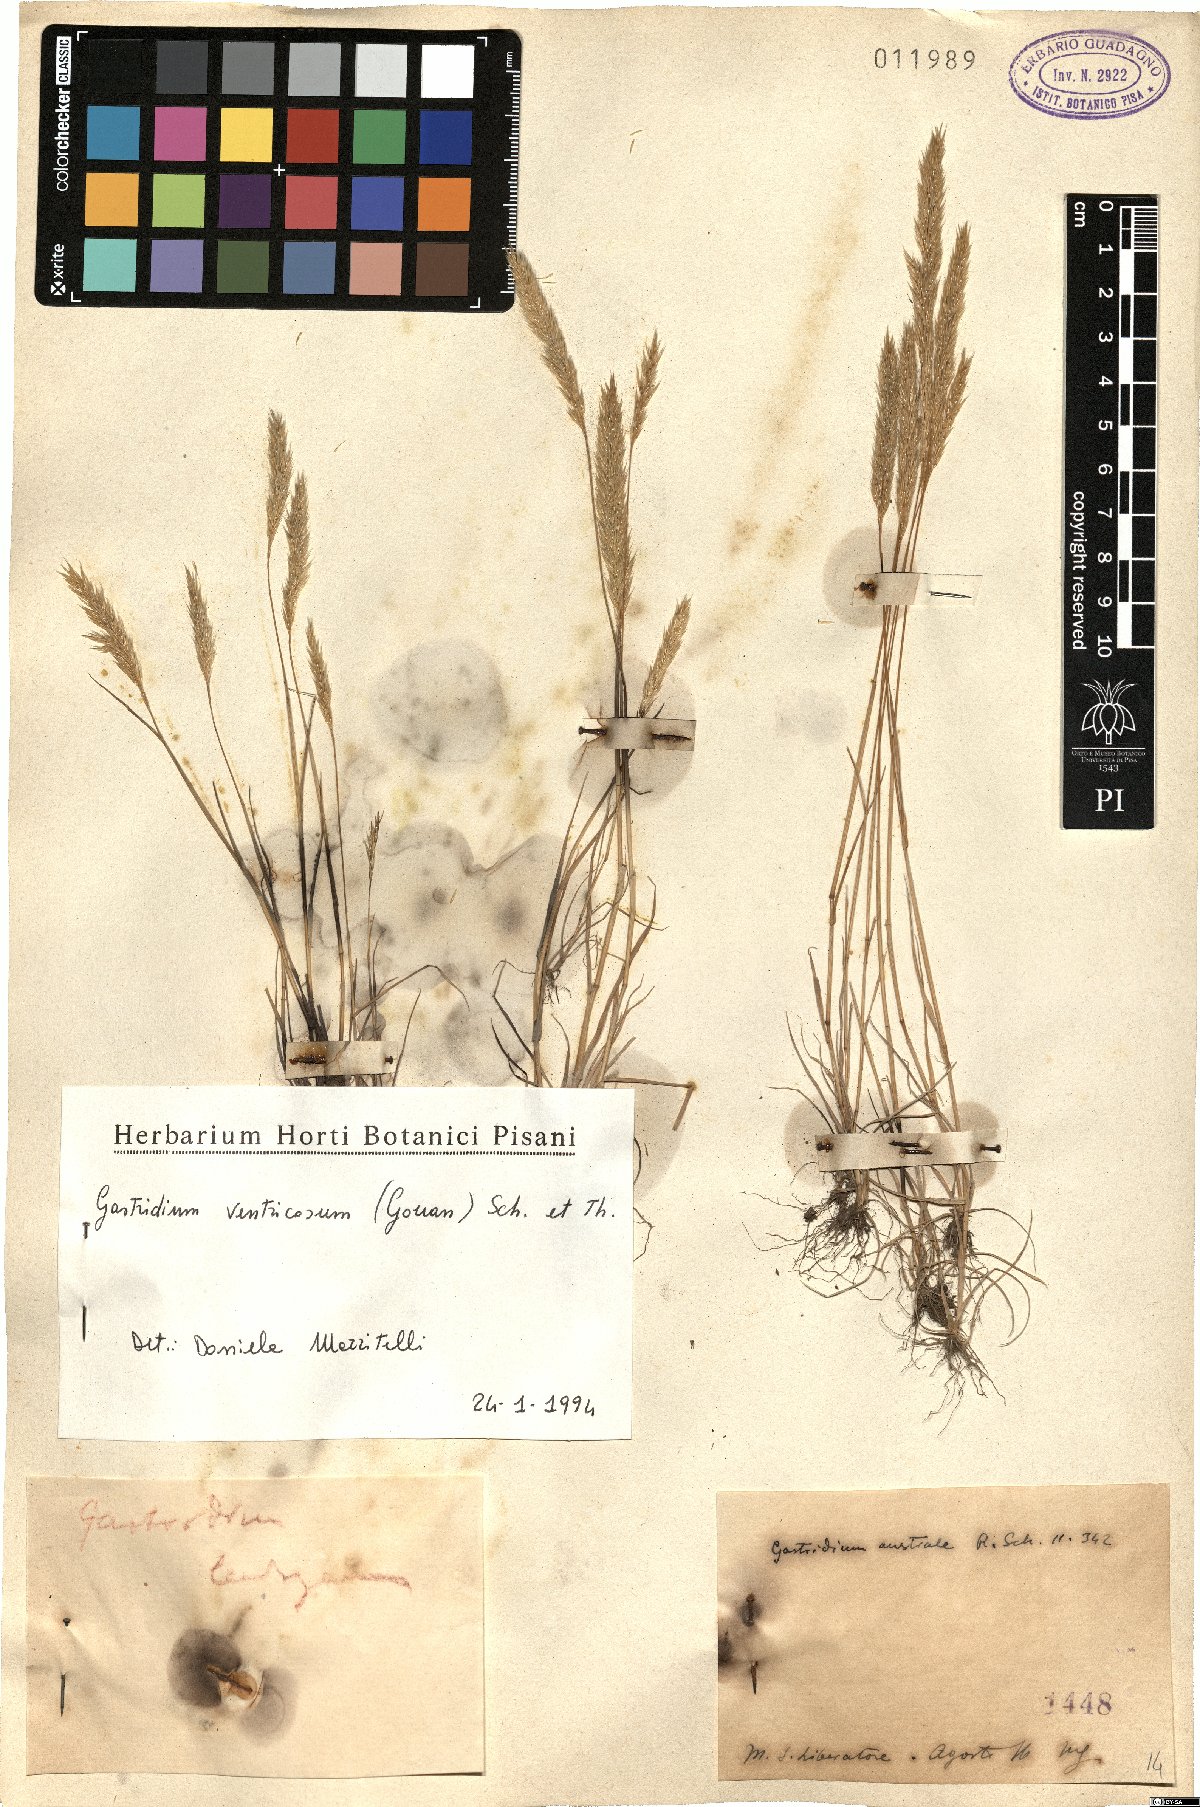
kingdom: Plantae
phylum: Tracheophyta
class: Liliopsida
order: Poales
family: Poaceae
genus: Gastridium
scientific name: Gastridium ventricosum
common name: Nit-grass
